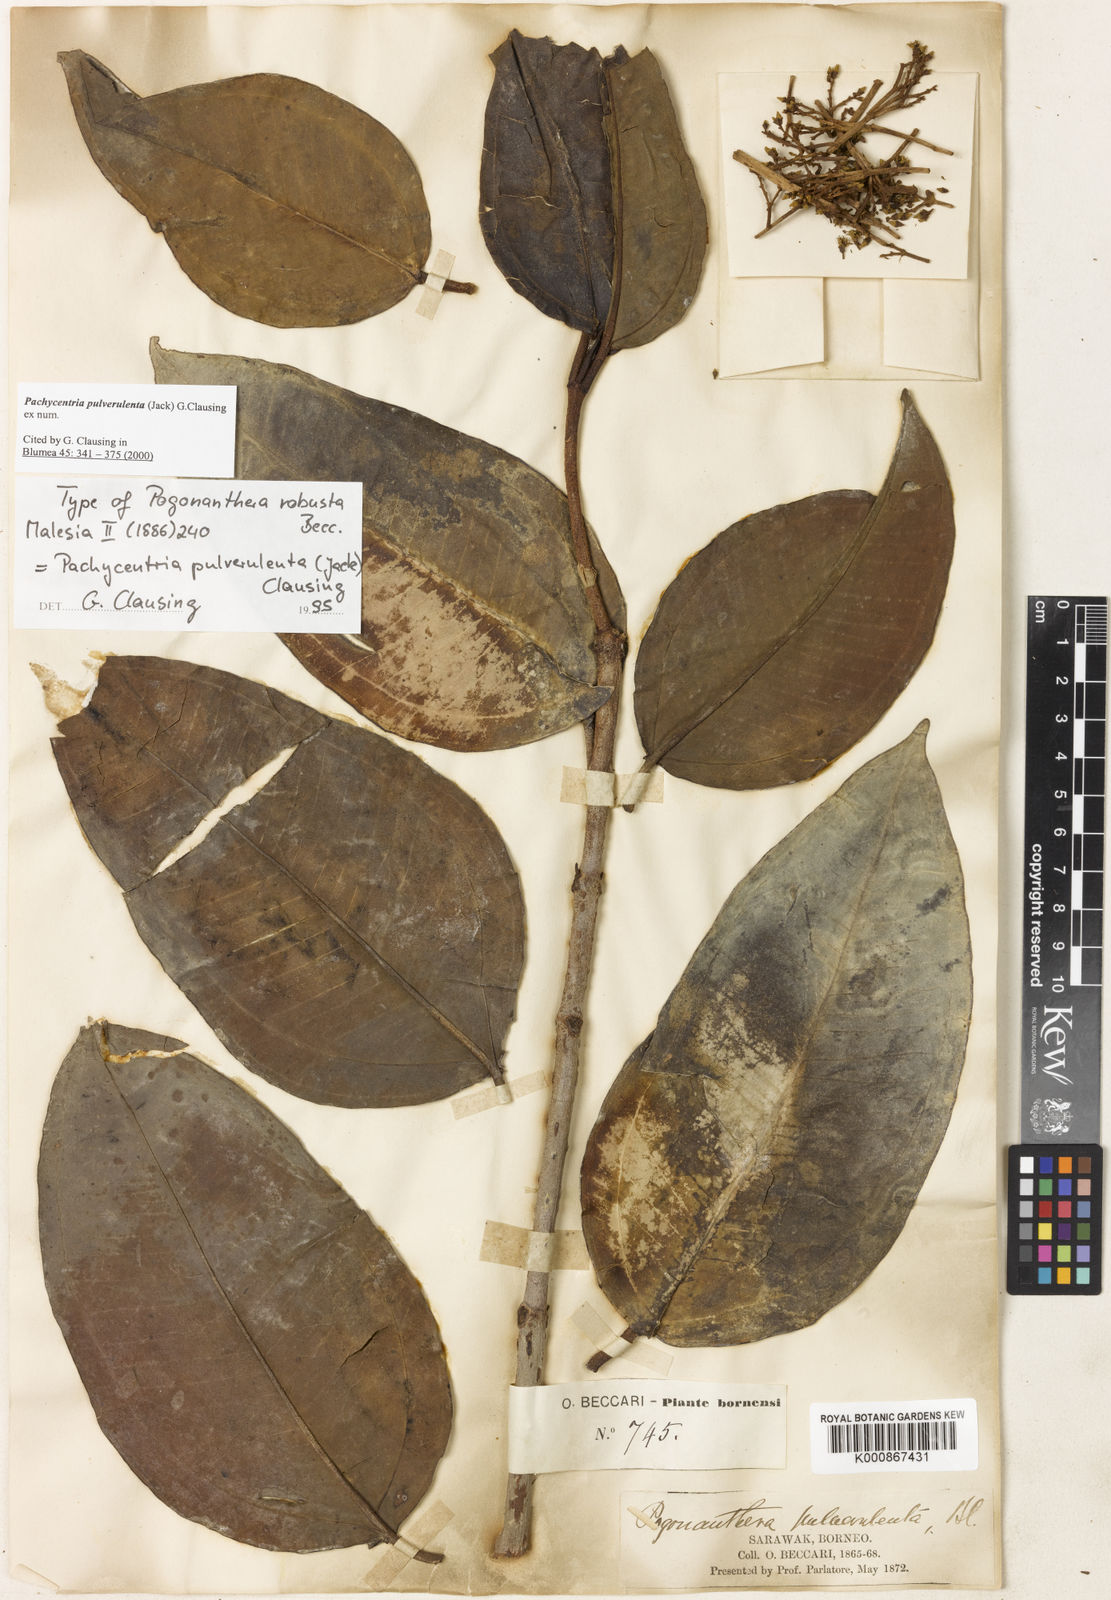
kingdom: Plantae
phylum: Tracheophyta
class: Magnoliopsida
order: Myrtales
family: Melastomataceae
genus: Pachycentria
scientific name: Pachycentria pulverulenta
